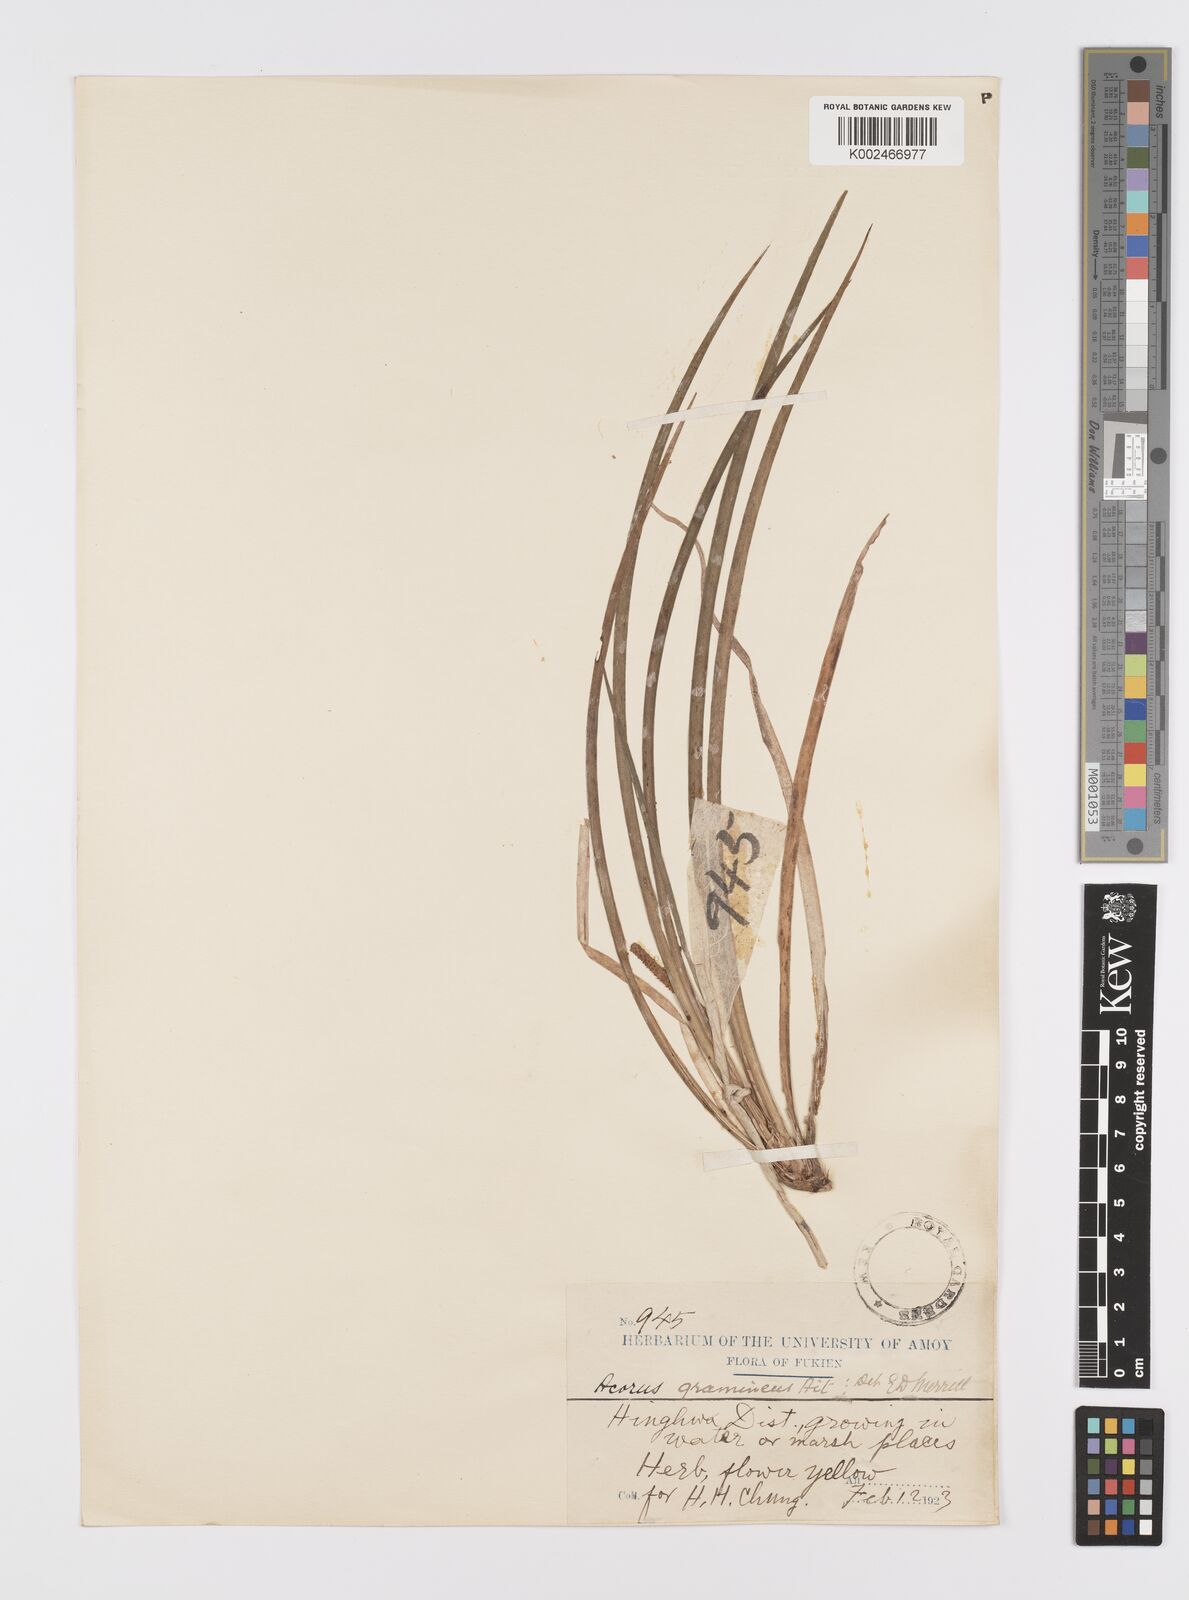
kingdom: Plantae
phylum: Tracheophyta
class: Liliopsida
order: Acorales
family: Acoraceae
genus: Acorus
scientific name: Acorus gramineus
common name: Slender sweet-flag
